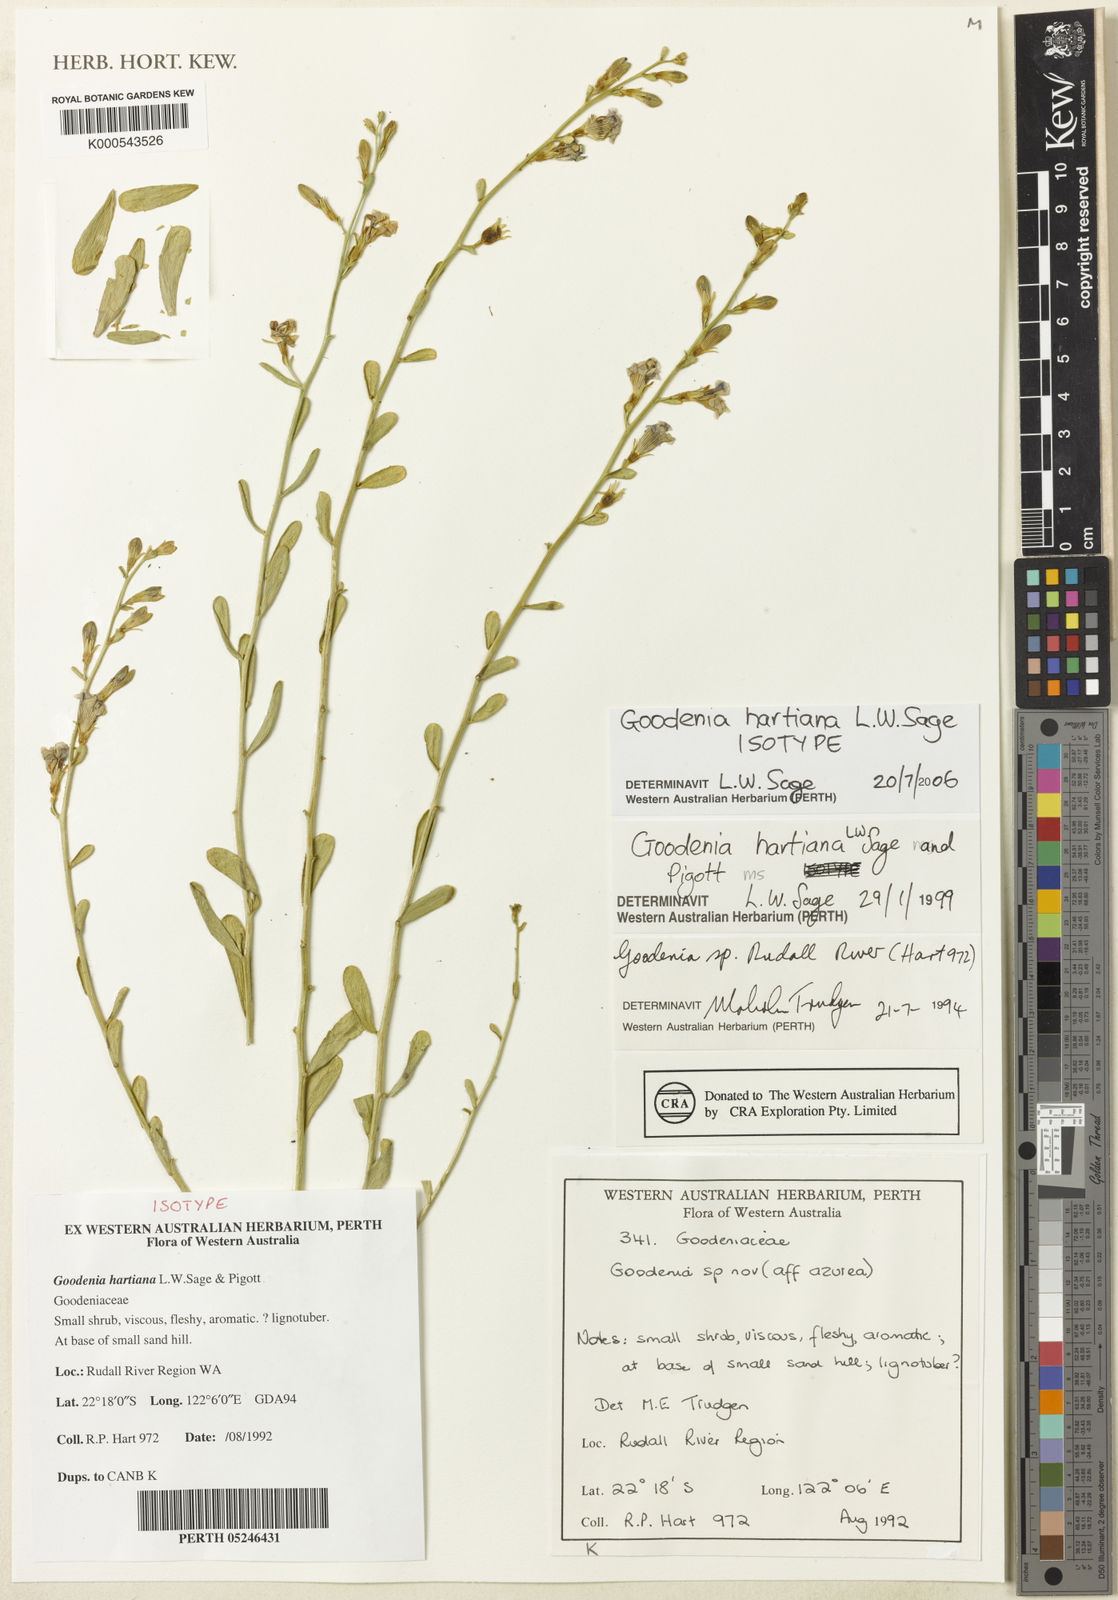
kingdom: Plantae
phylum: Tracheophyta
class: Magnoliopsida
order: Asterales
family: Goodeniaceae
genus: Goodenia
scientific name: Goodenia hartiana
